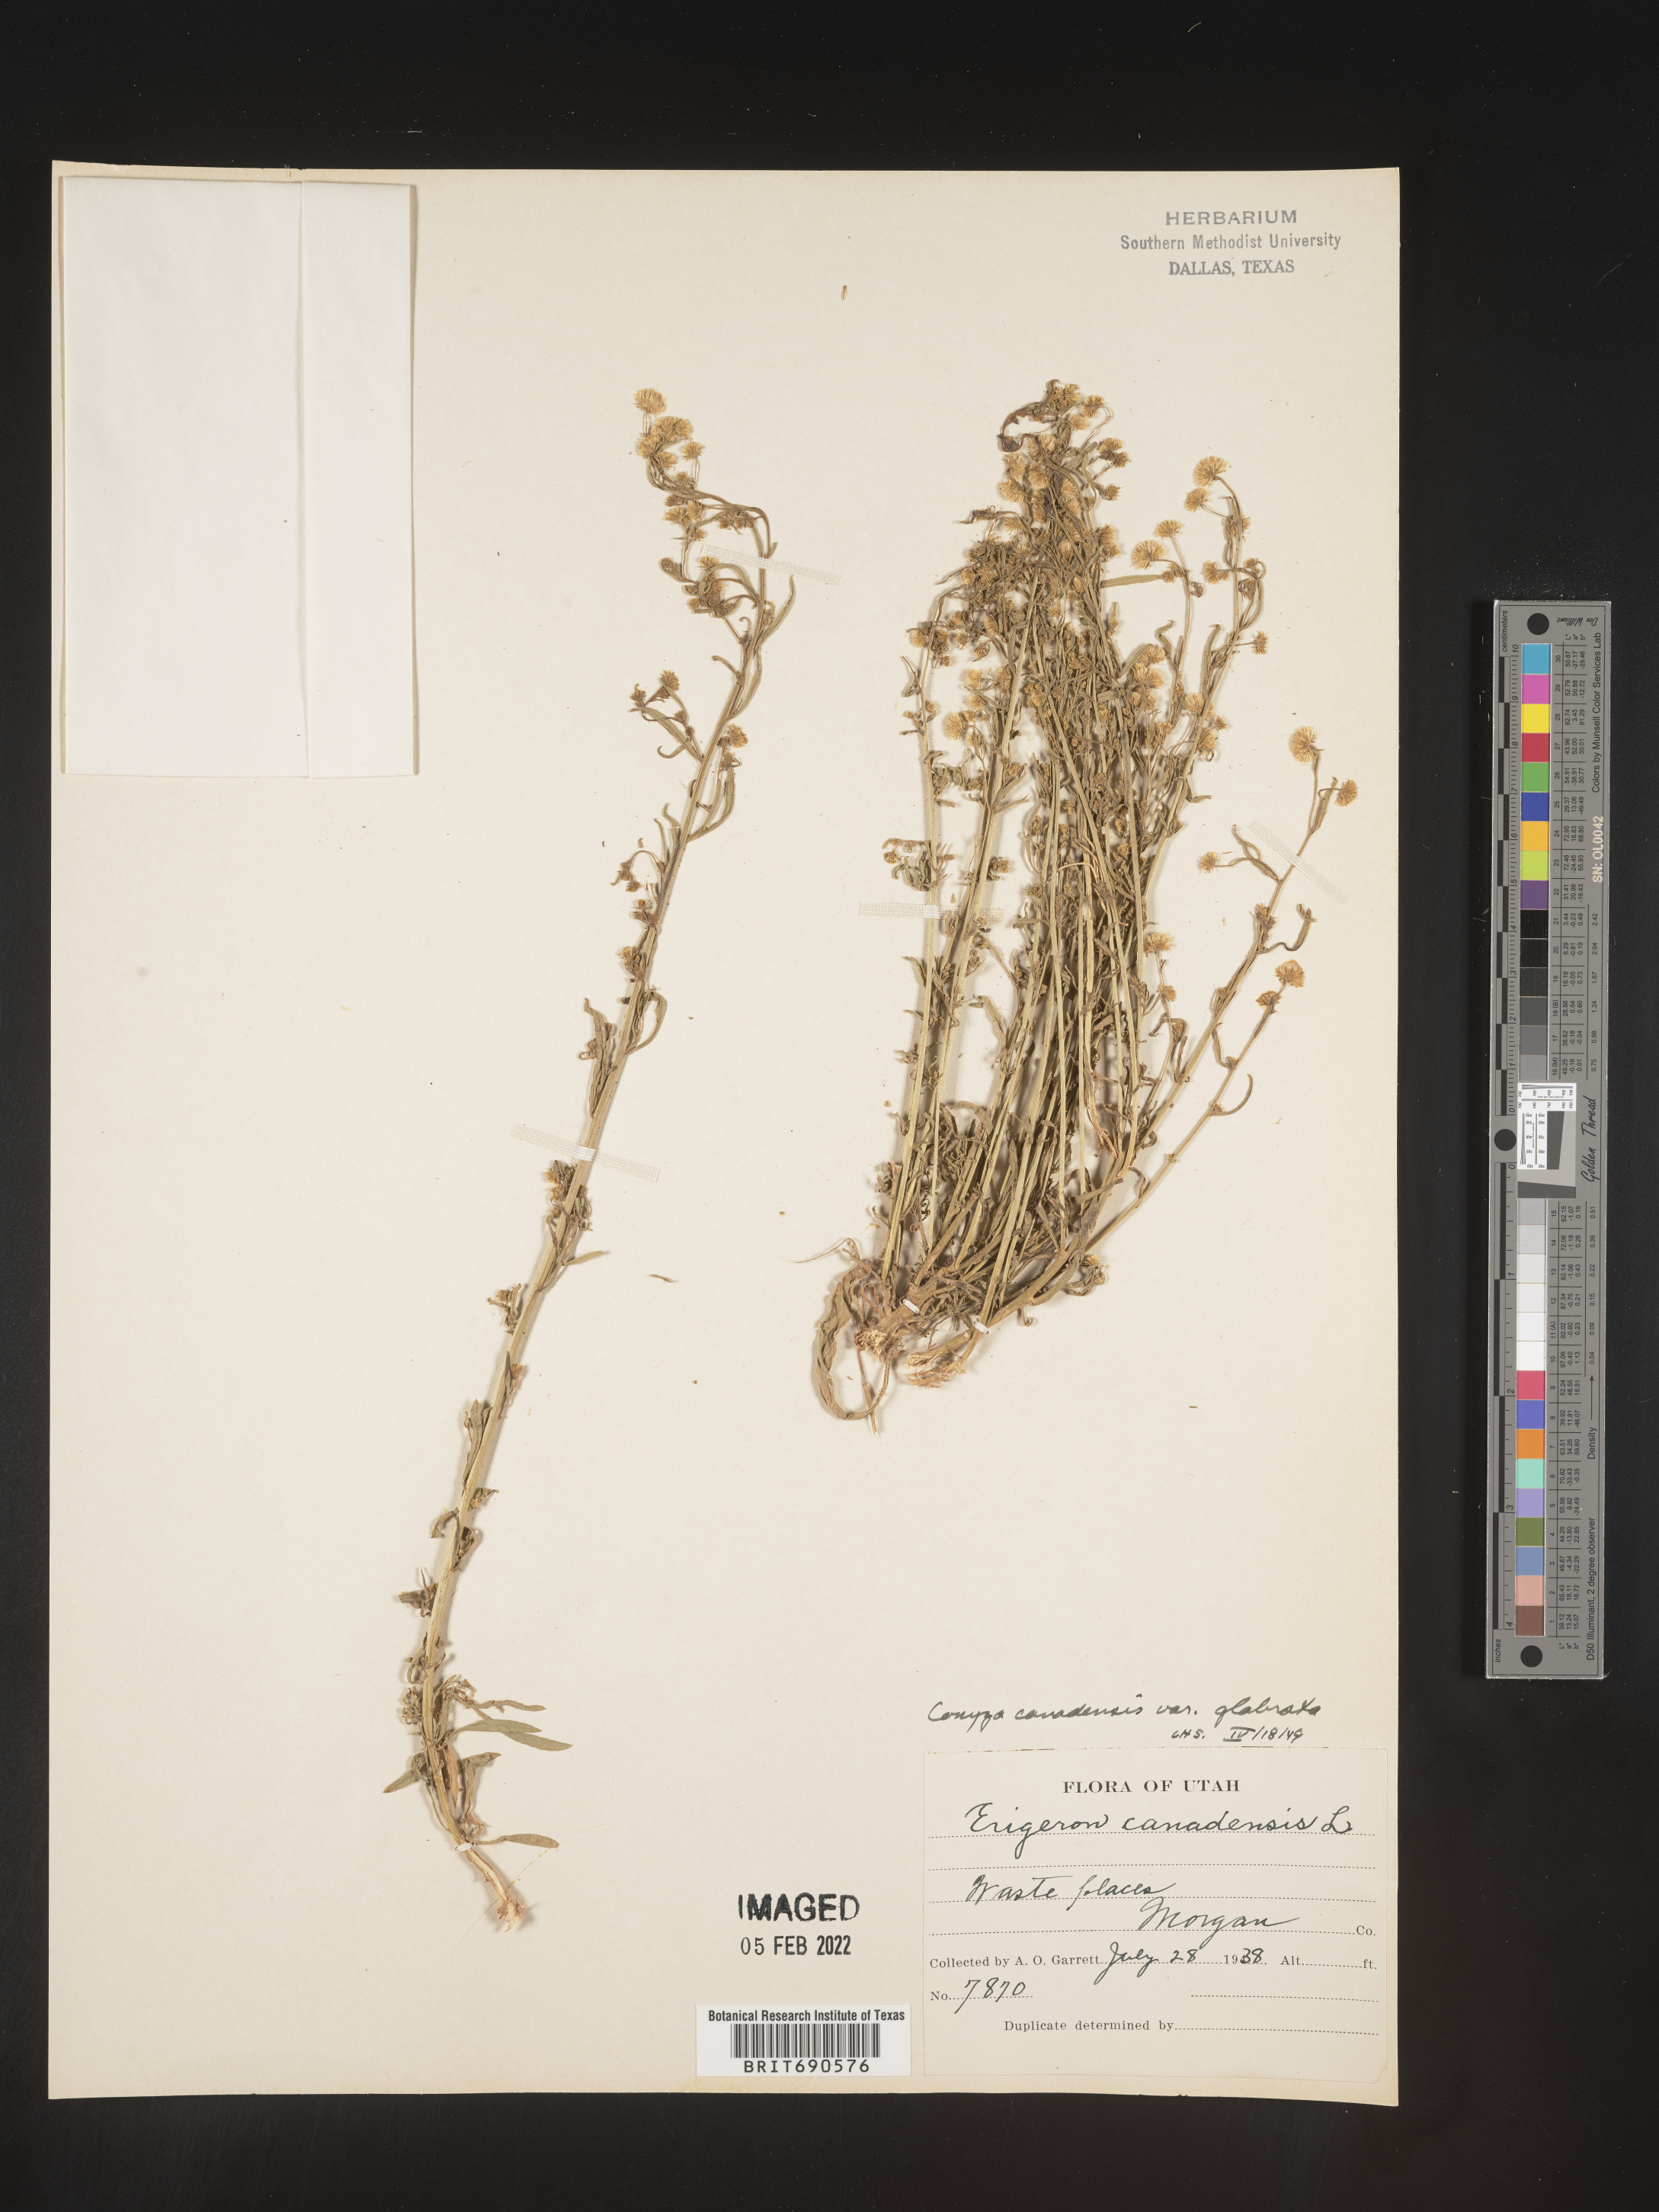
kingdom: Plantae
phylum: Tracheophyta
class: Magnoliopsida
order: Asterales
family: Asteraceae
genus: Erigeron
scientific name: Erigeron canadensis
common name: Canadian fleabane
